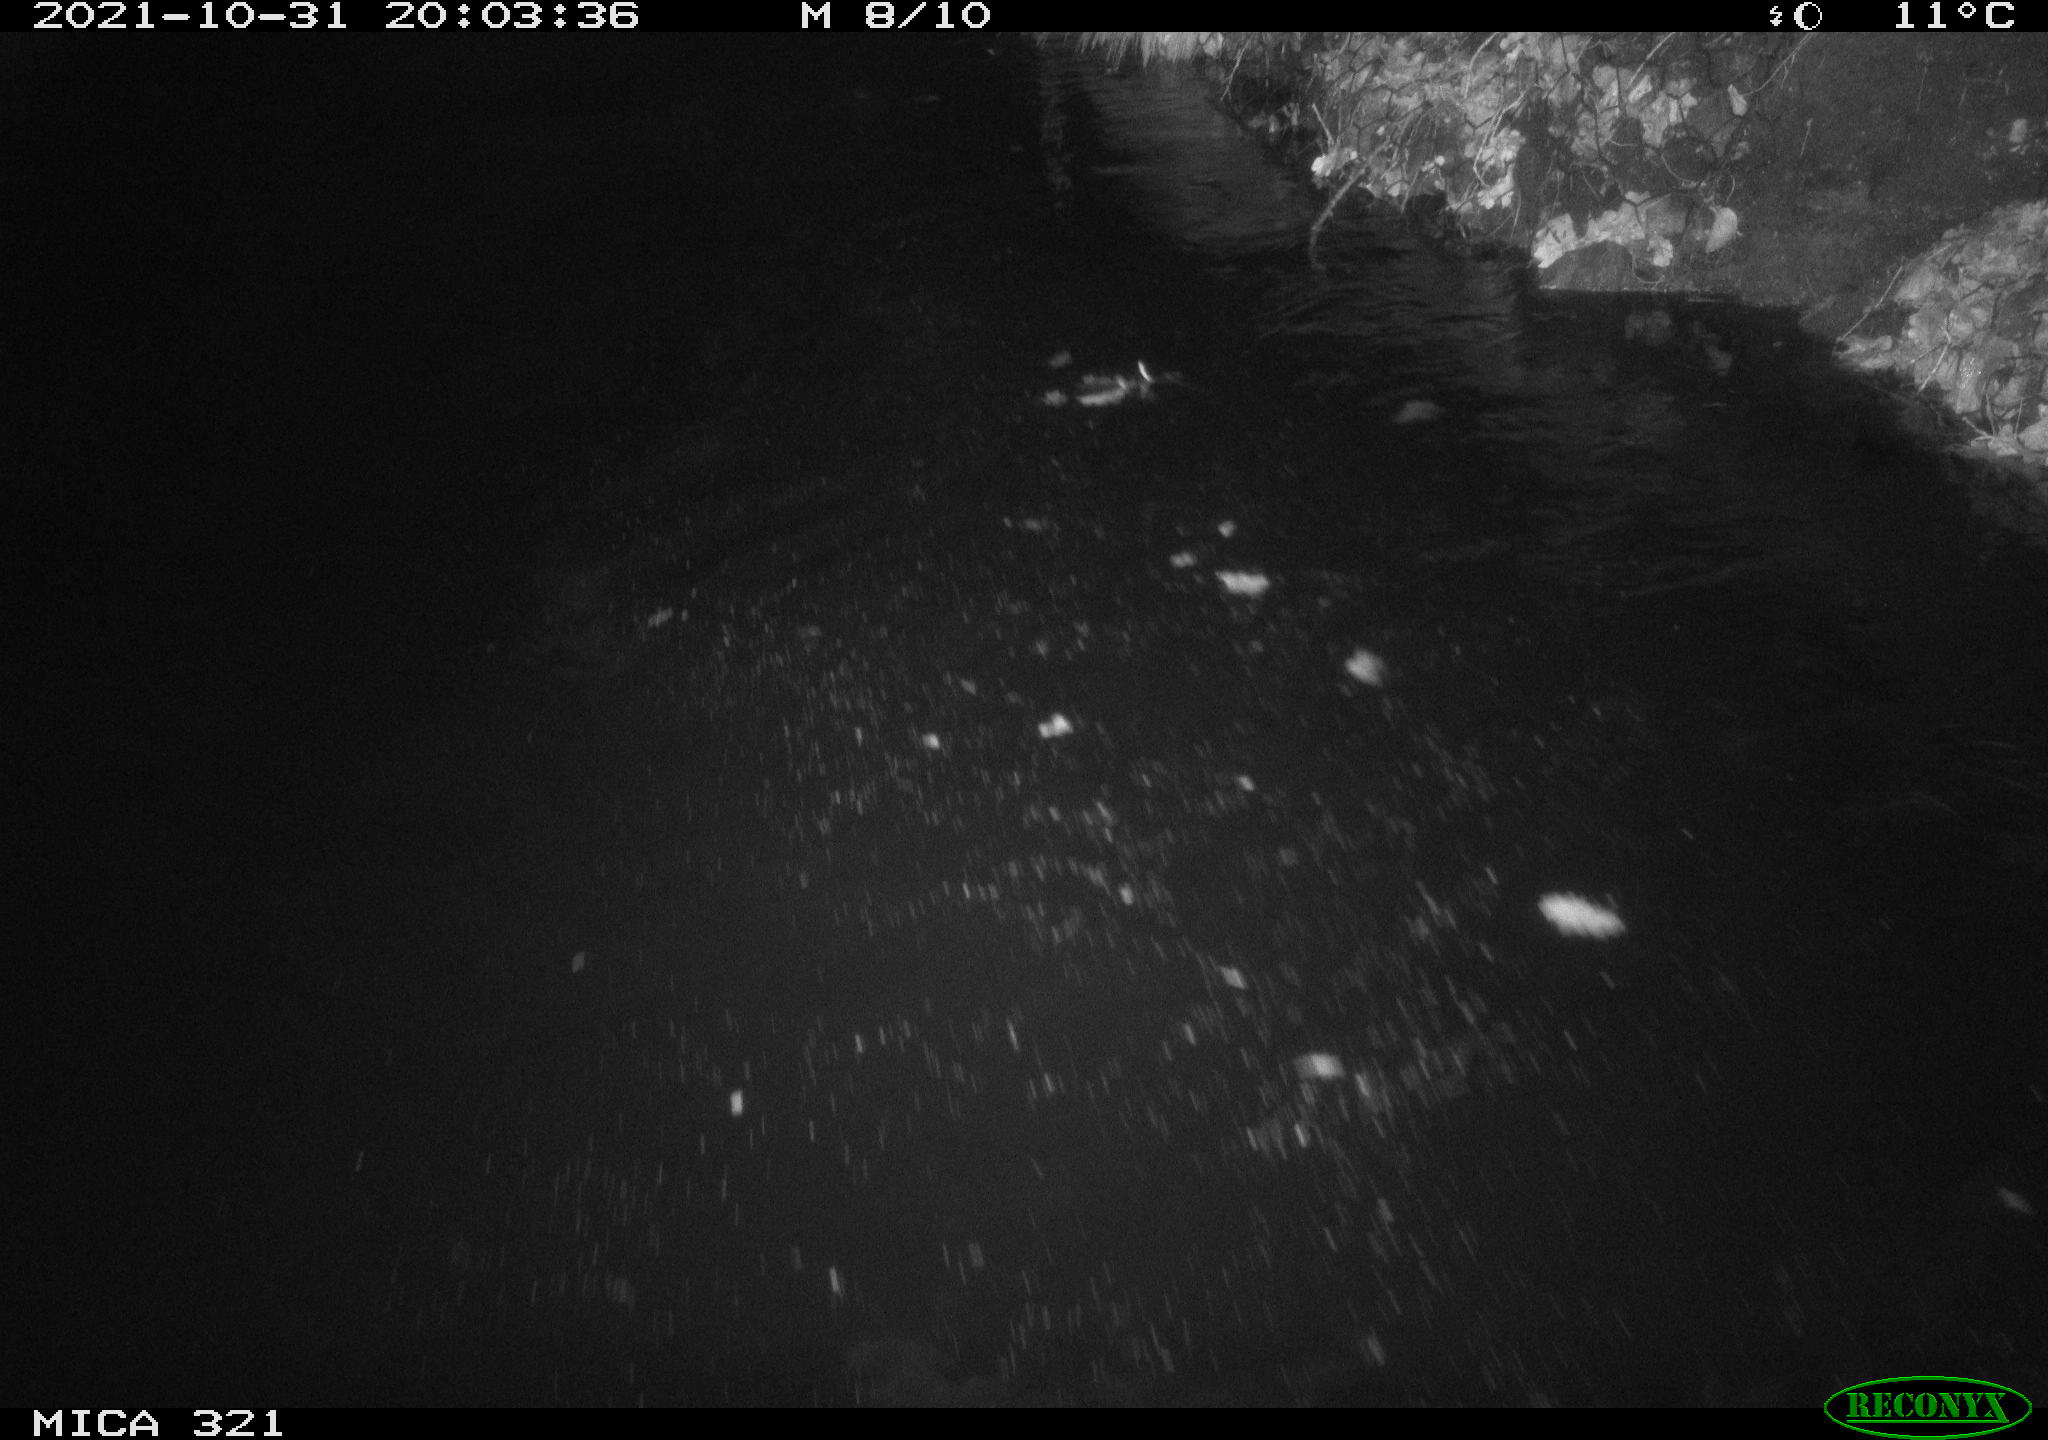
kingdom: Animalia
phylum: Chordata
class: Mammalia
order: Rodentia
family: Muridae
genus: Rattus
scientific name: Rattus norvegicus
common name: Brown rat
